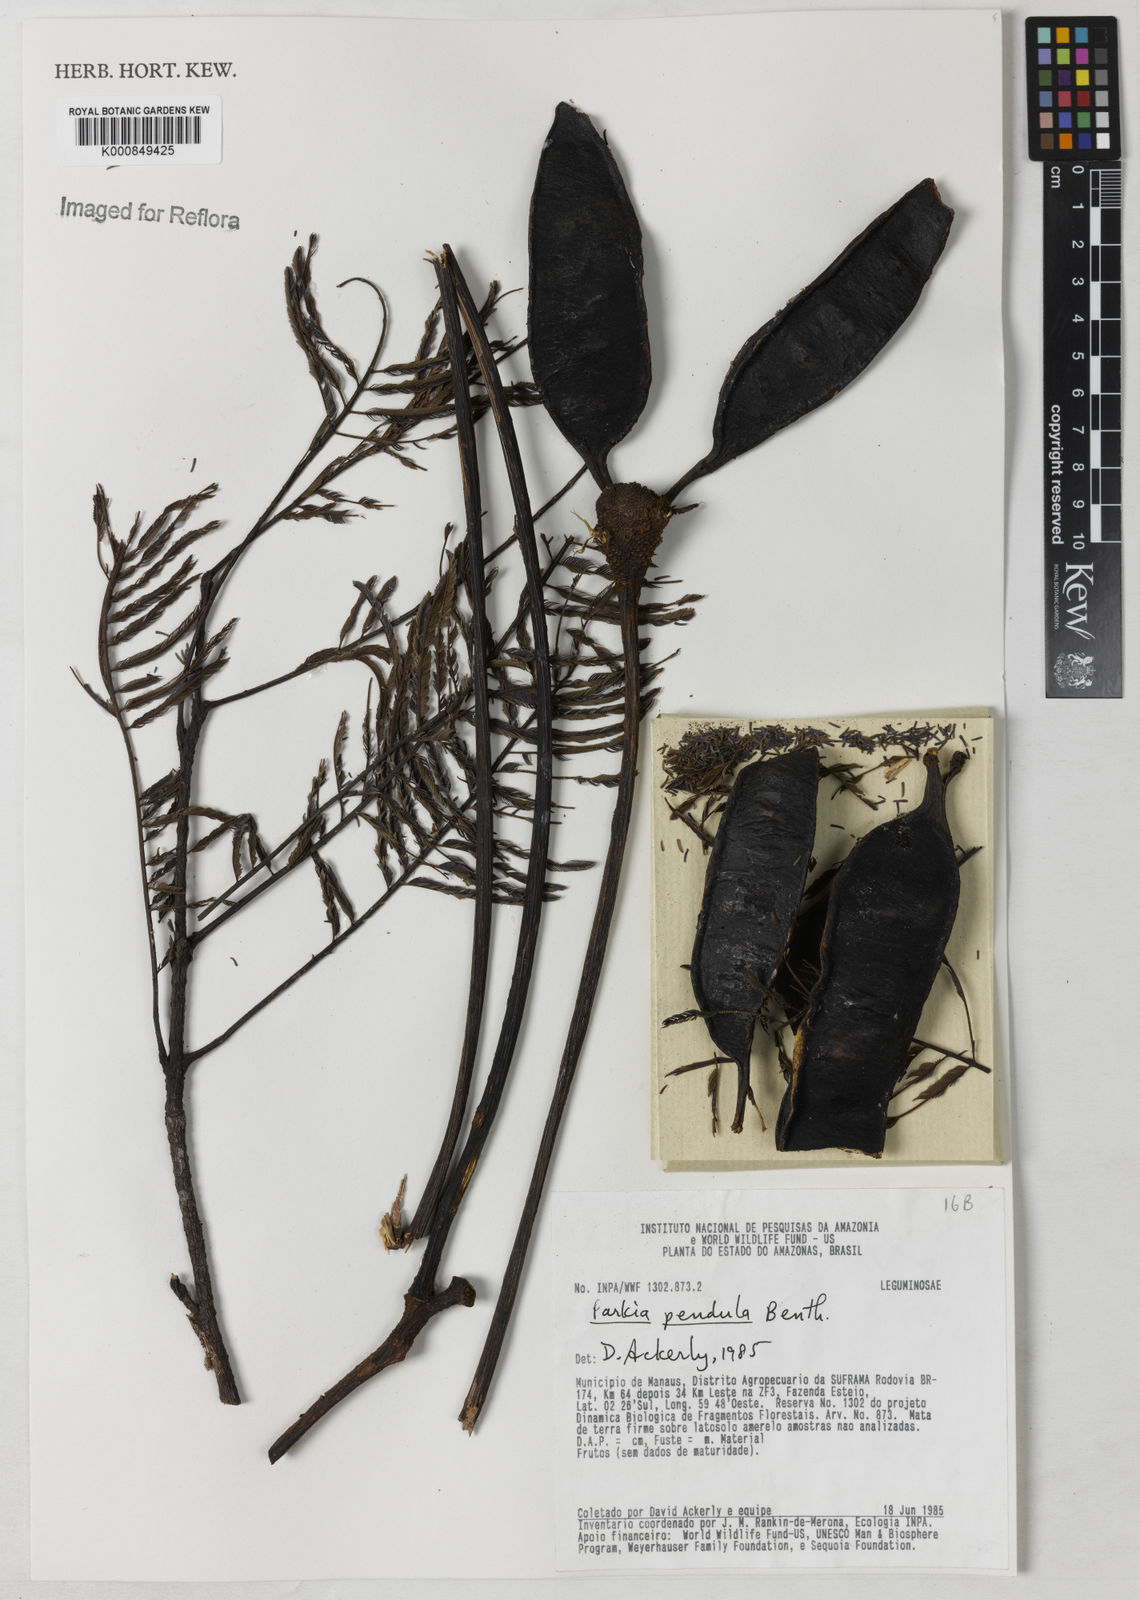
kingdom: Plantae
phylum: Tracheophyta
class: Magnoliopsida
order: Fabales
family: Fabaceae
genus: Parkia
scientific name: Parkia
